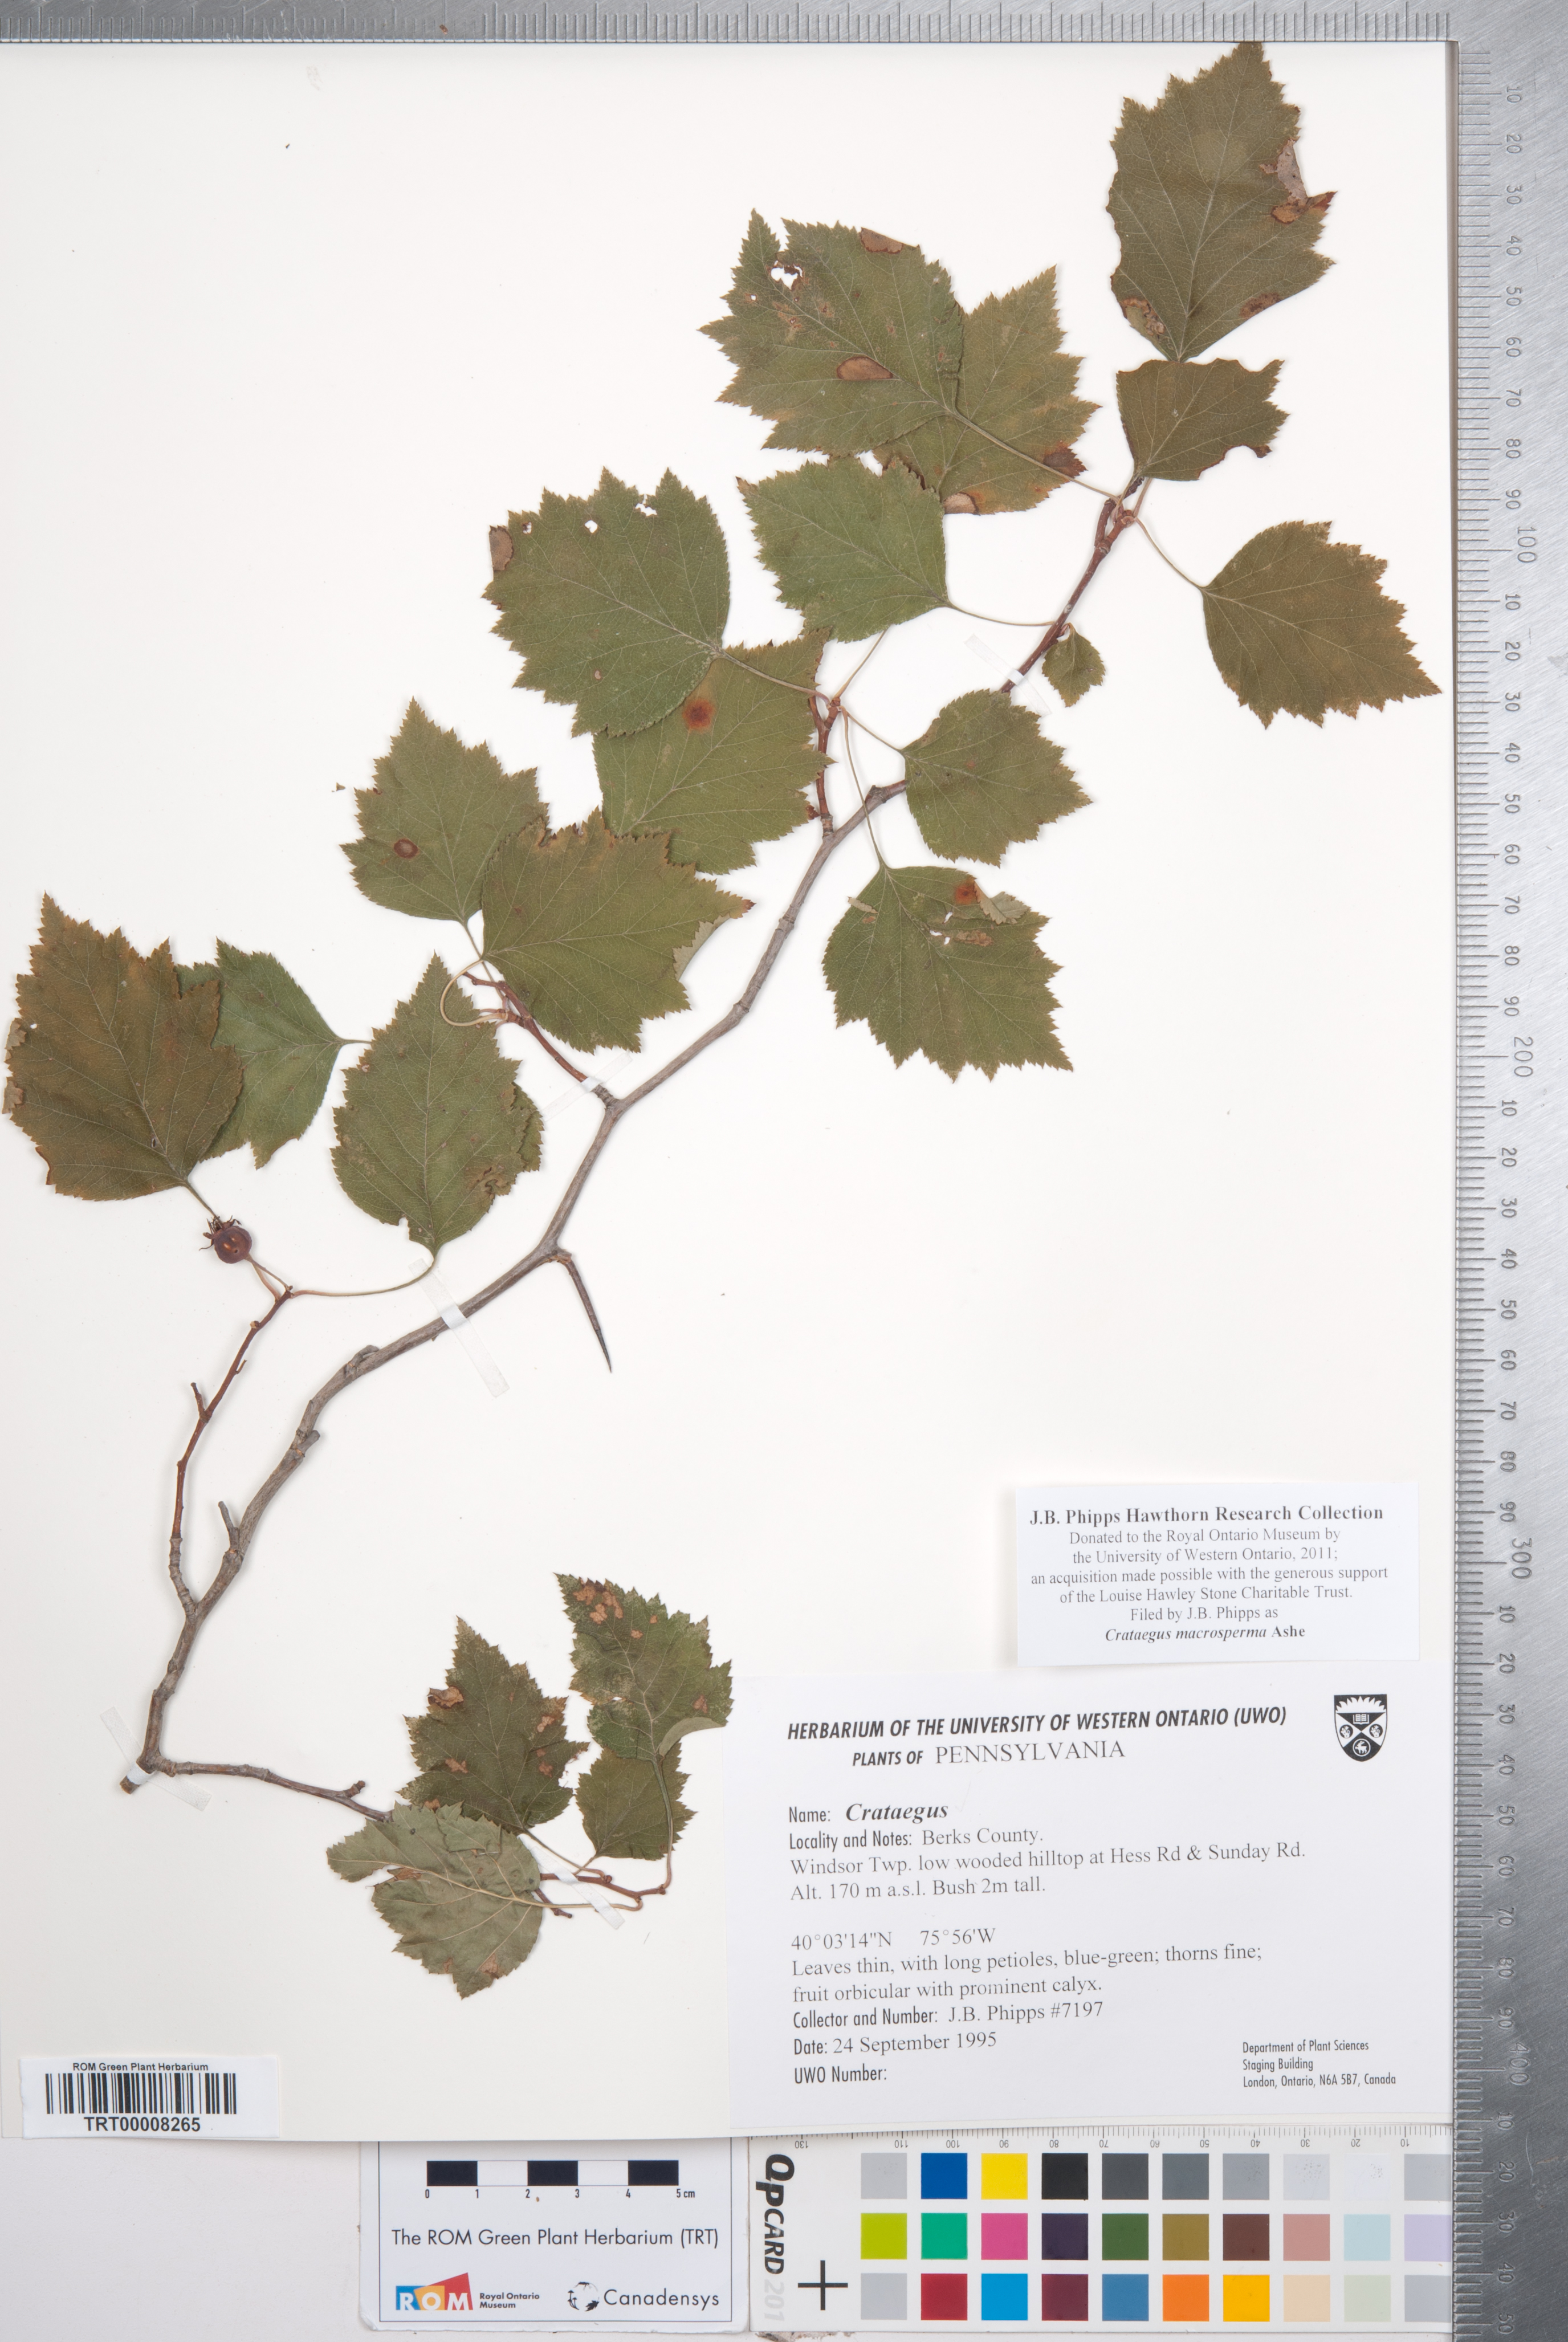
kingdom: Plantae
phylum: Tracheophyta
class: Magnoliopsida
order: Rosales
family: Rosaceae
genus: Crataegus
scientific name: Crataegus macrosperma
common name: Variable hawthorn
